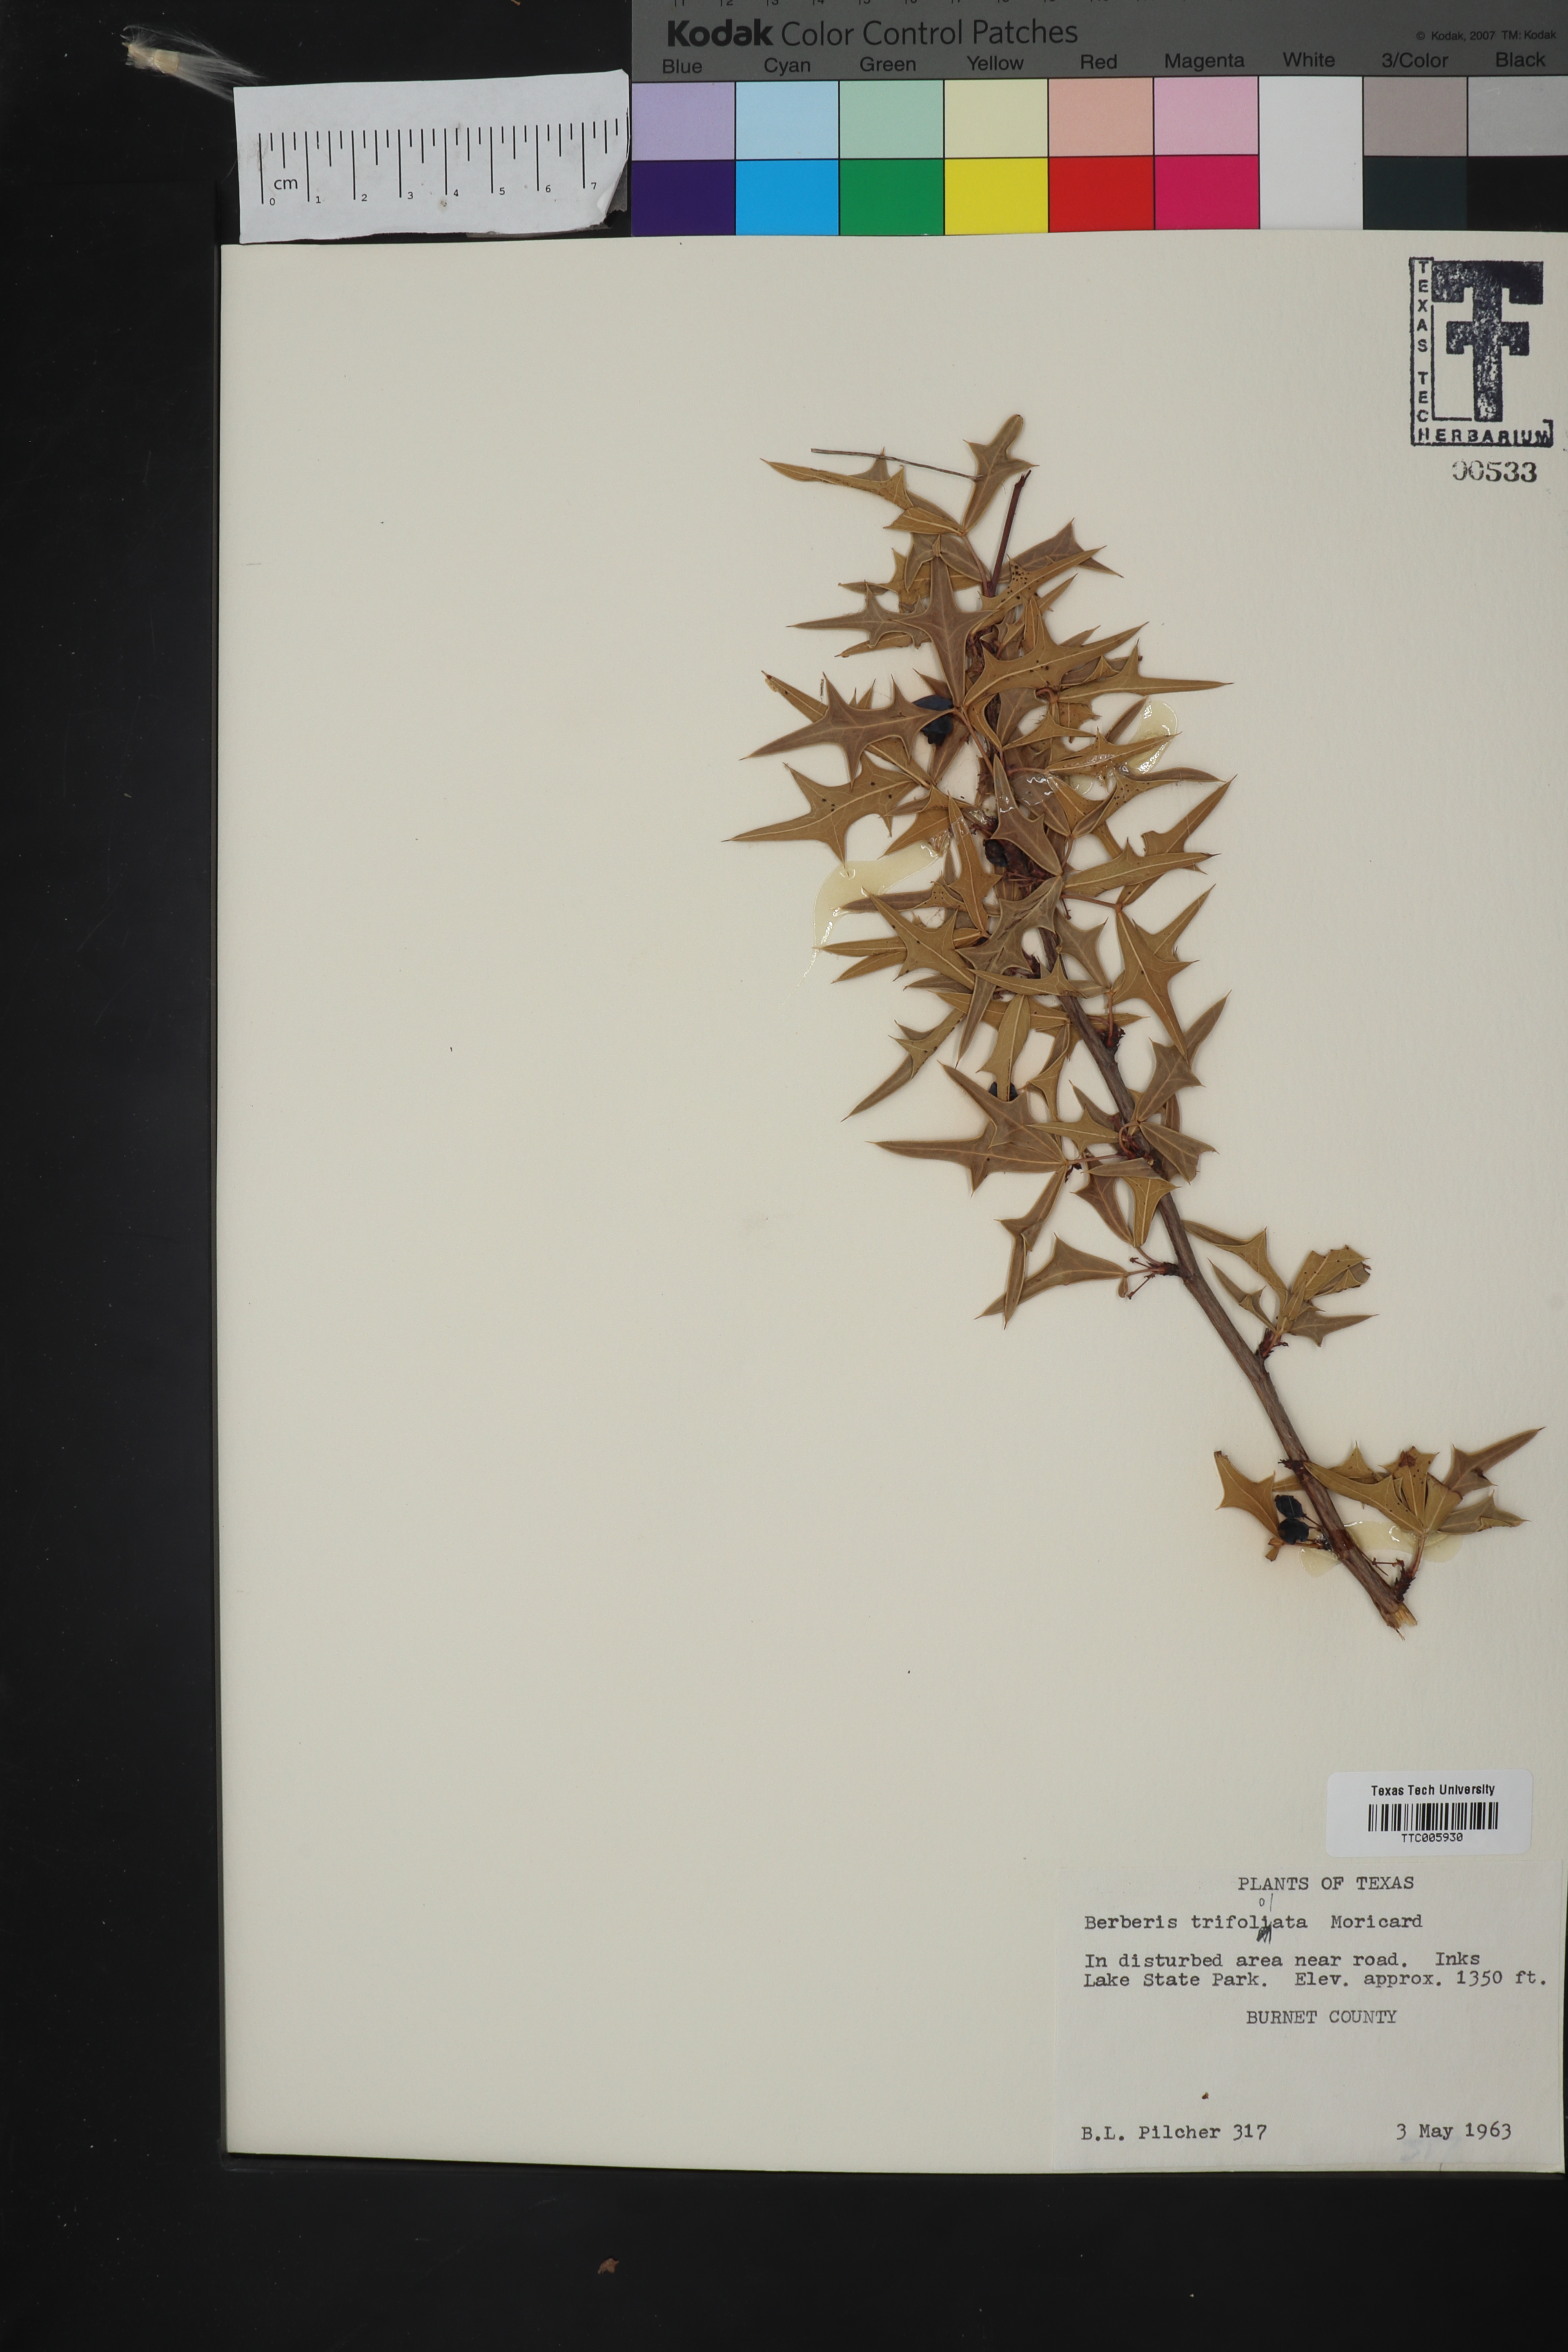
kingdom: Plantae
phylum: Tracheophyta
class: Magnoliopsida
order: Ranunculales
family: Berberidaceae
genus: Alloberberis
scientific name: Alloberberis trifoliolata
